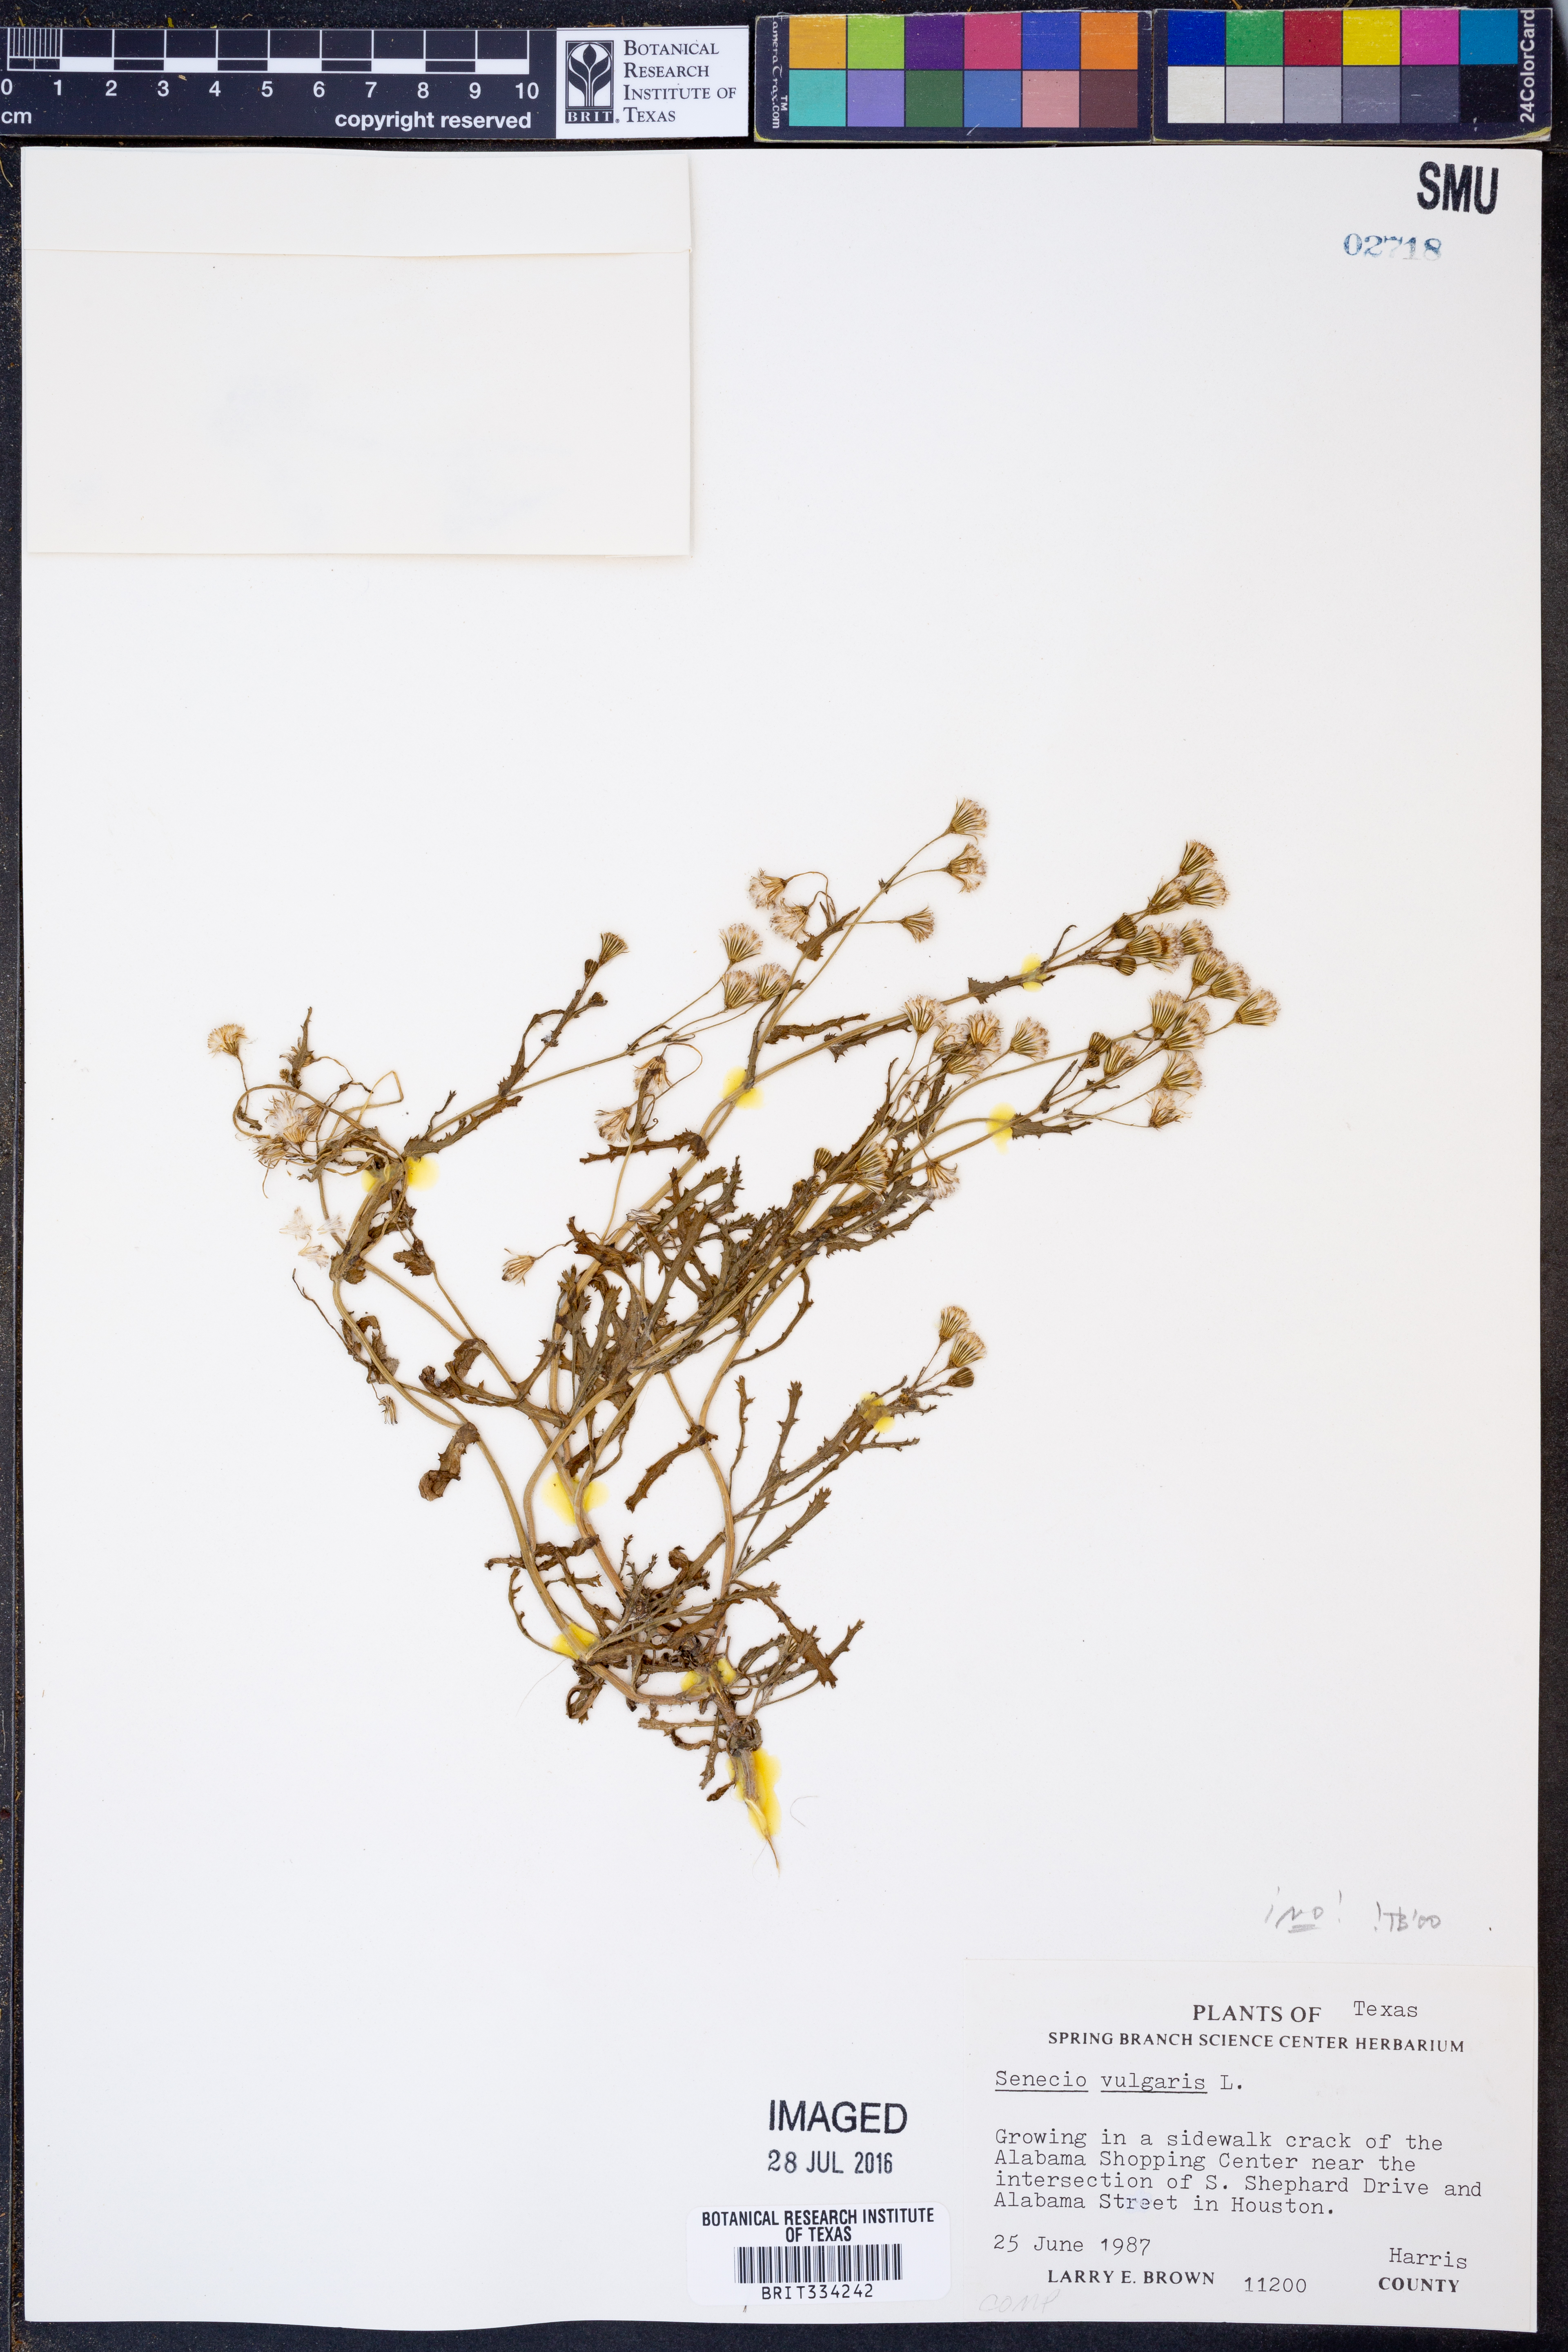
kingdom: Plantae
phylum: Tracheophyta
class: Magnoliopsida
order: Asterales
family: Asteraceae
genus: Senecio
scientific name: Senecio vulgaris
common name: Old-man-in-the-spring
